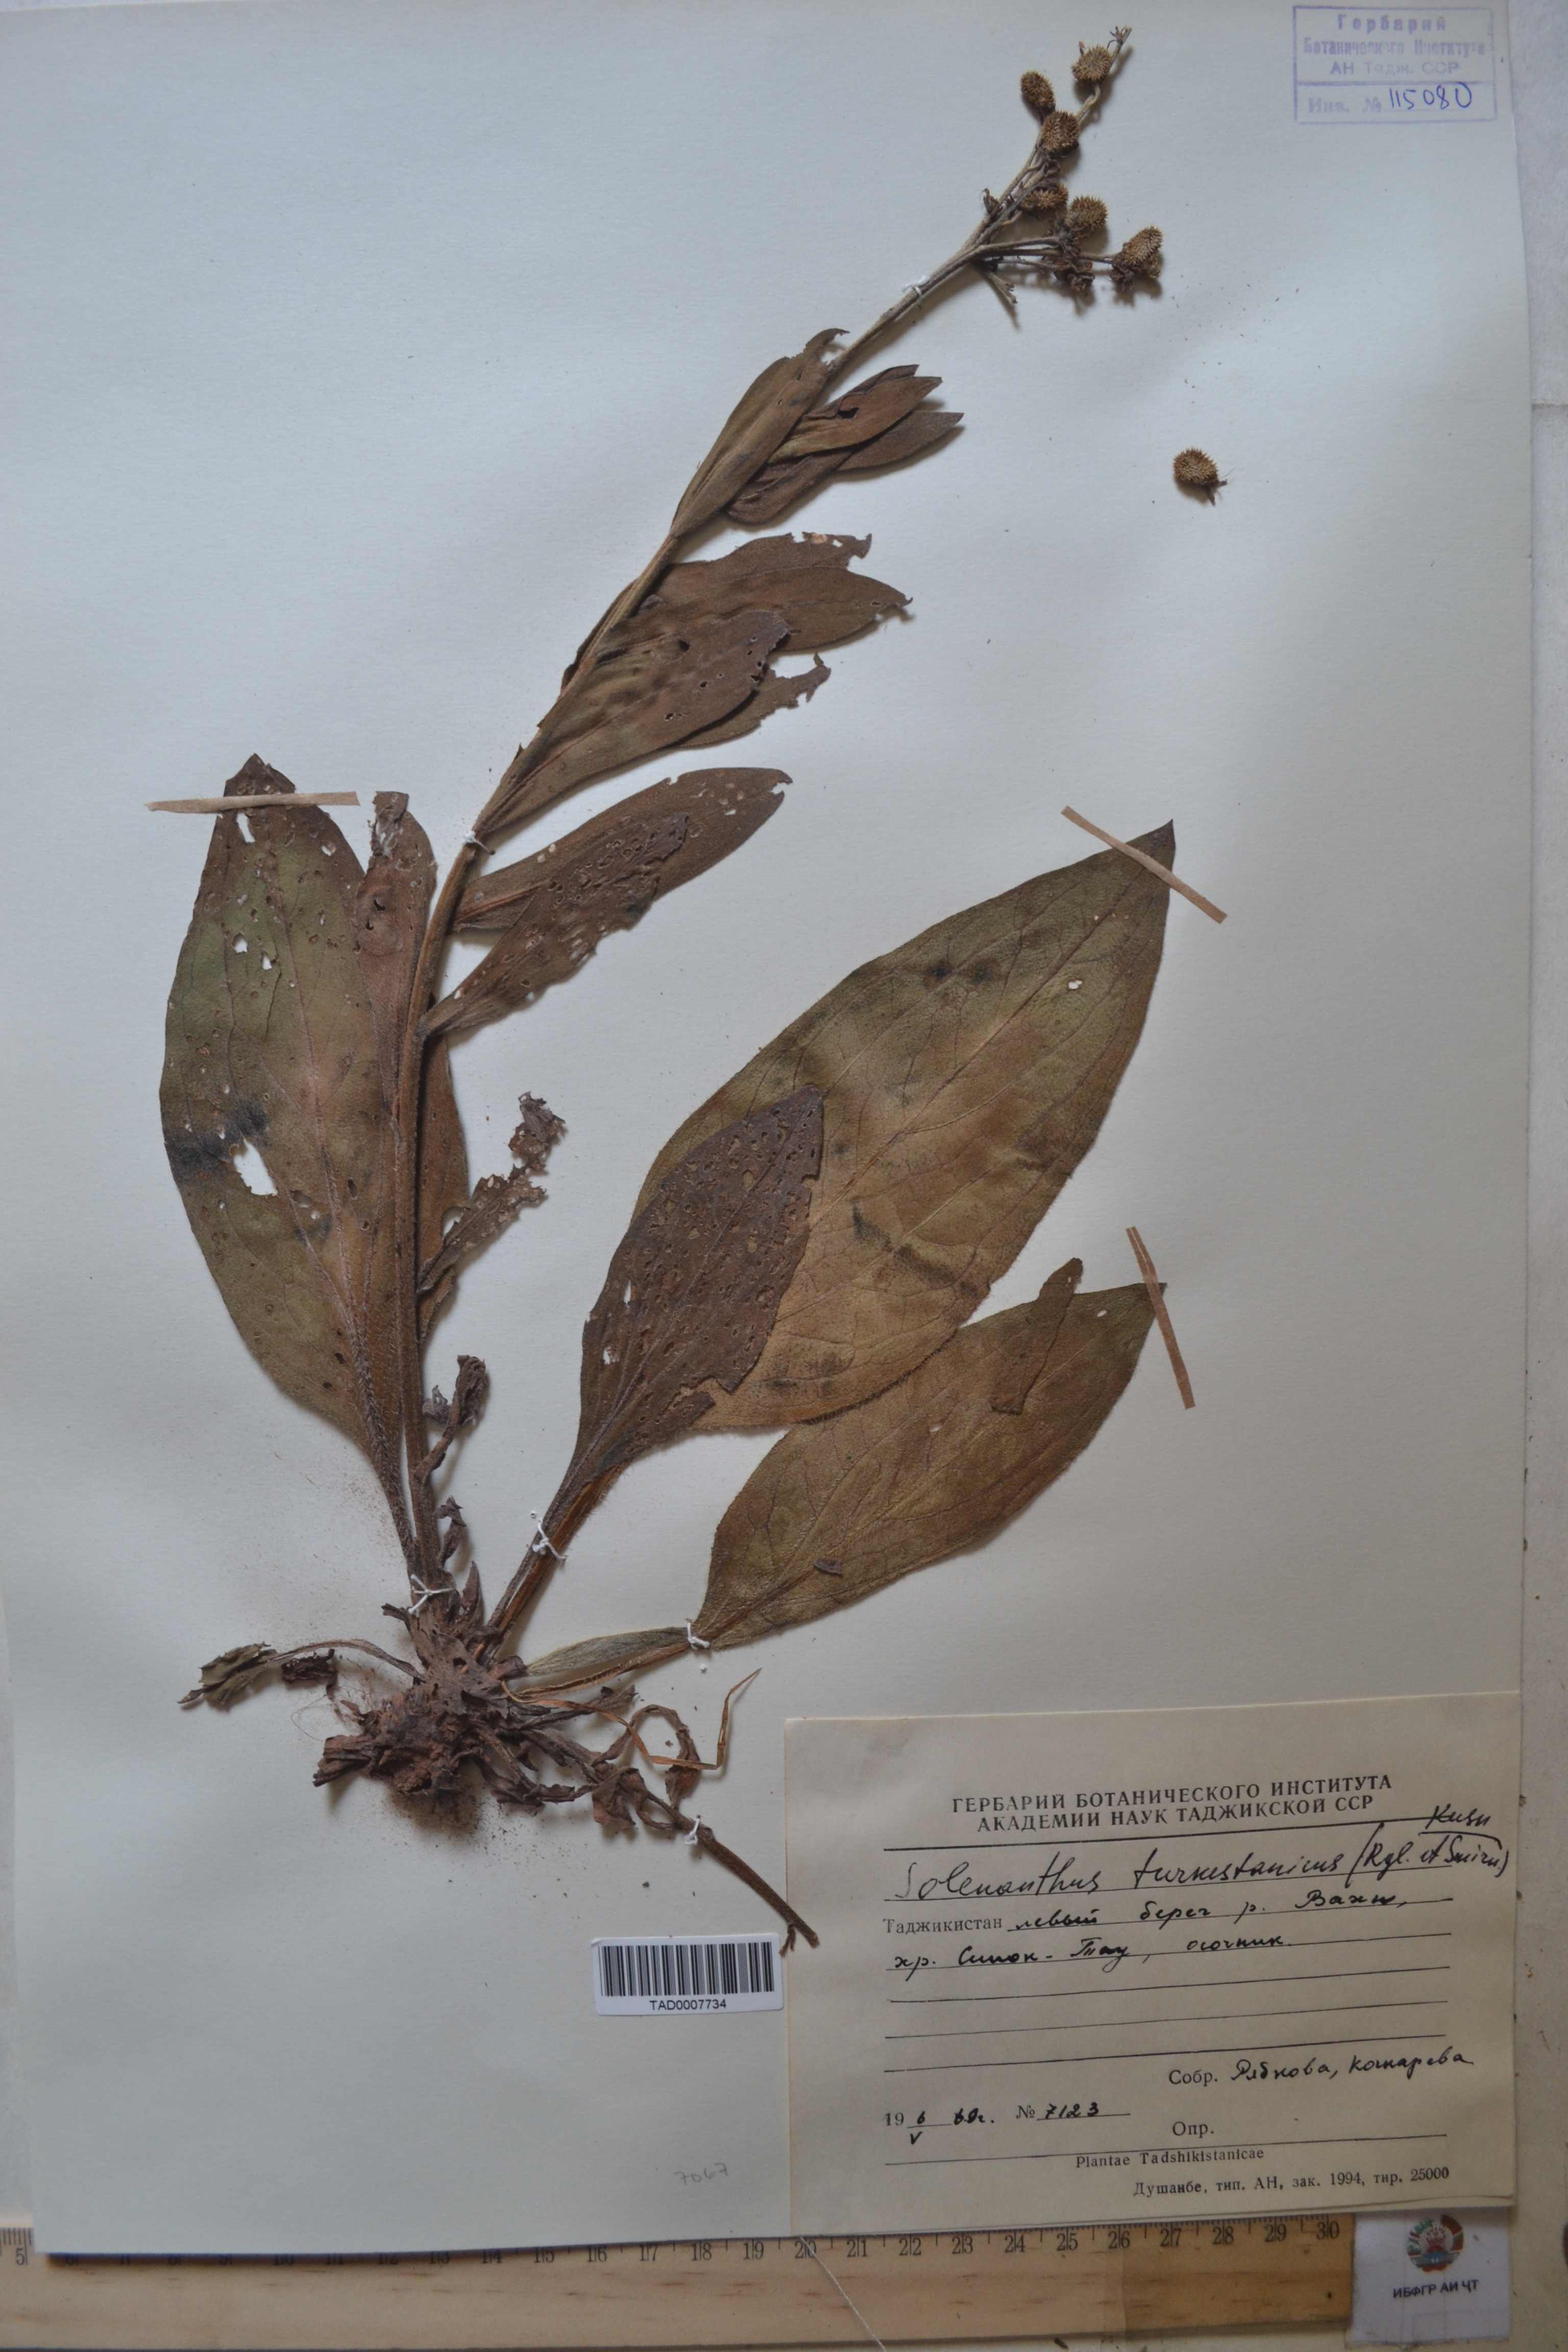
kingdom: Plantae
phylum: Tracheophyta
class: Magnoliopsida
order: Boraginales
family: Boraginaceae
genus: Solenanthus
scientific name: Solenanthus turkestanicus
